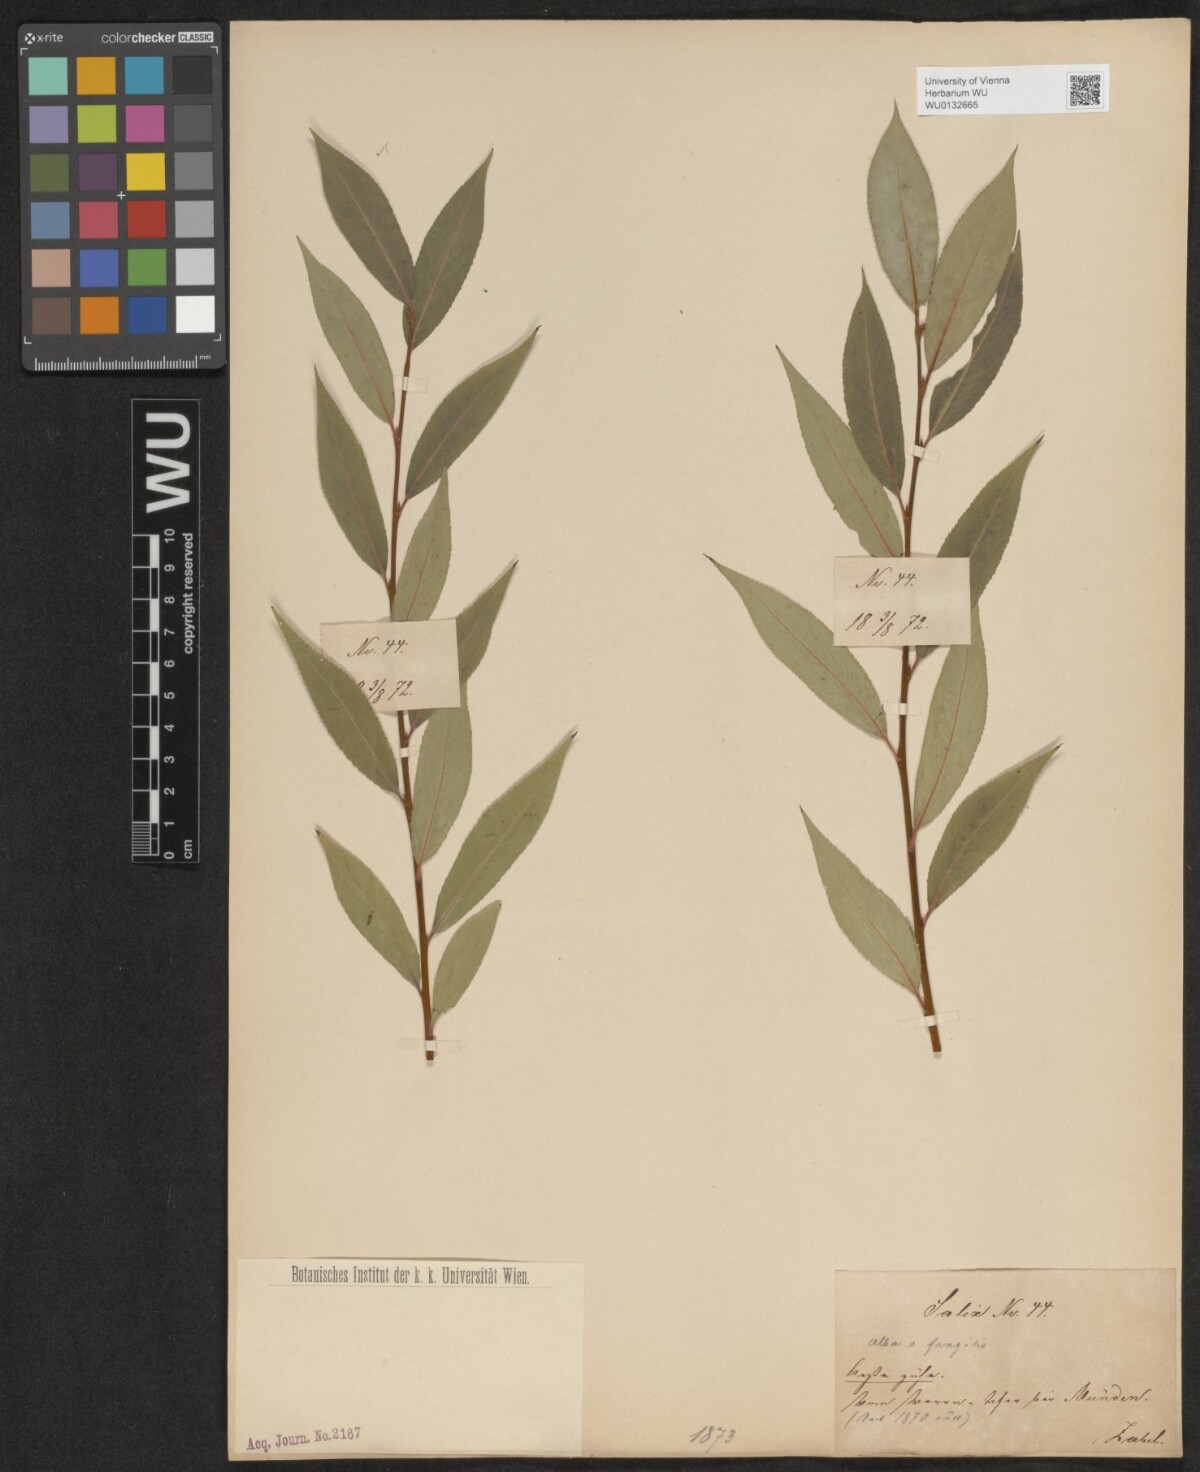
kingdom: Plantae
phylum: Tracheophyta
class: Magnoliopsida
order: Malpighiales
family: Salicaceae
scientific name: Salicaceae
